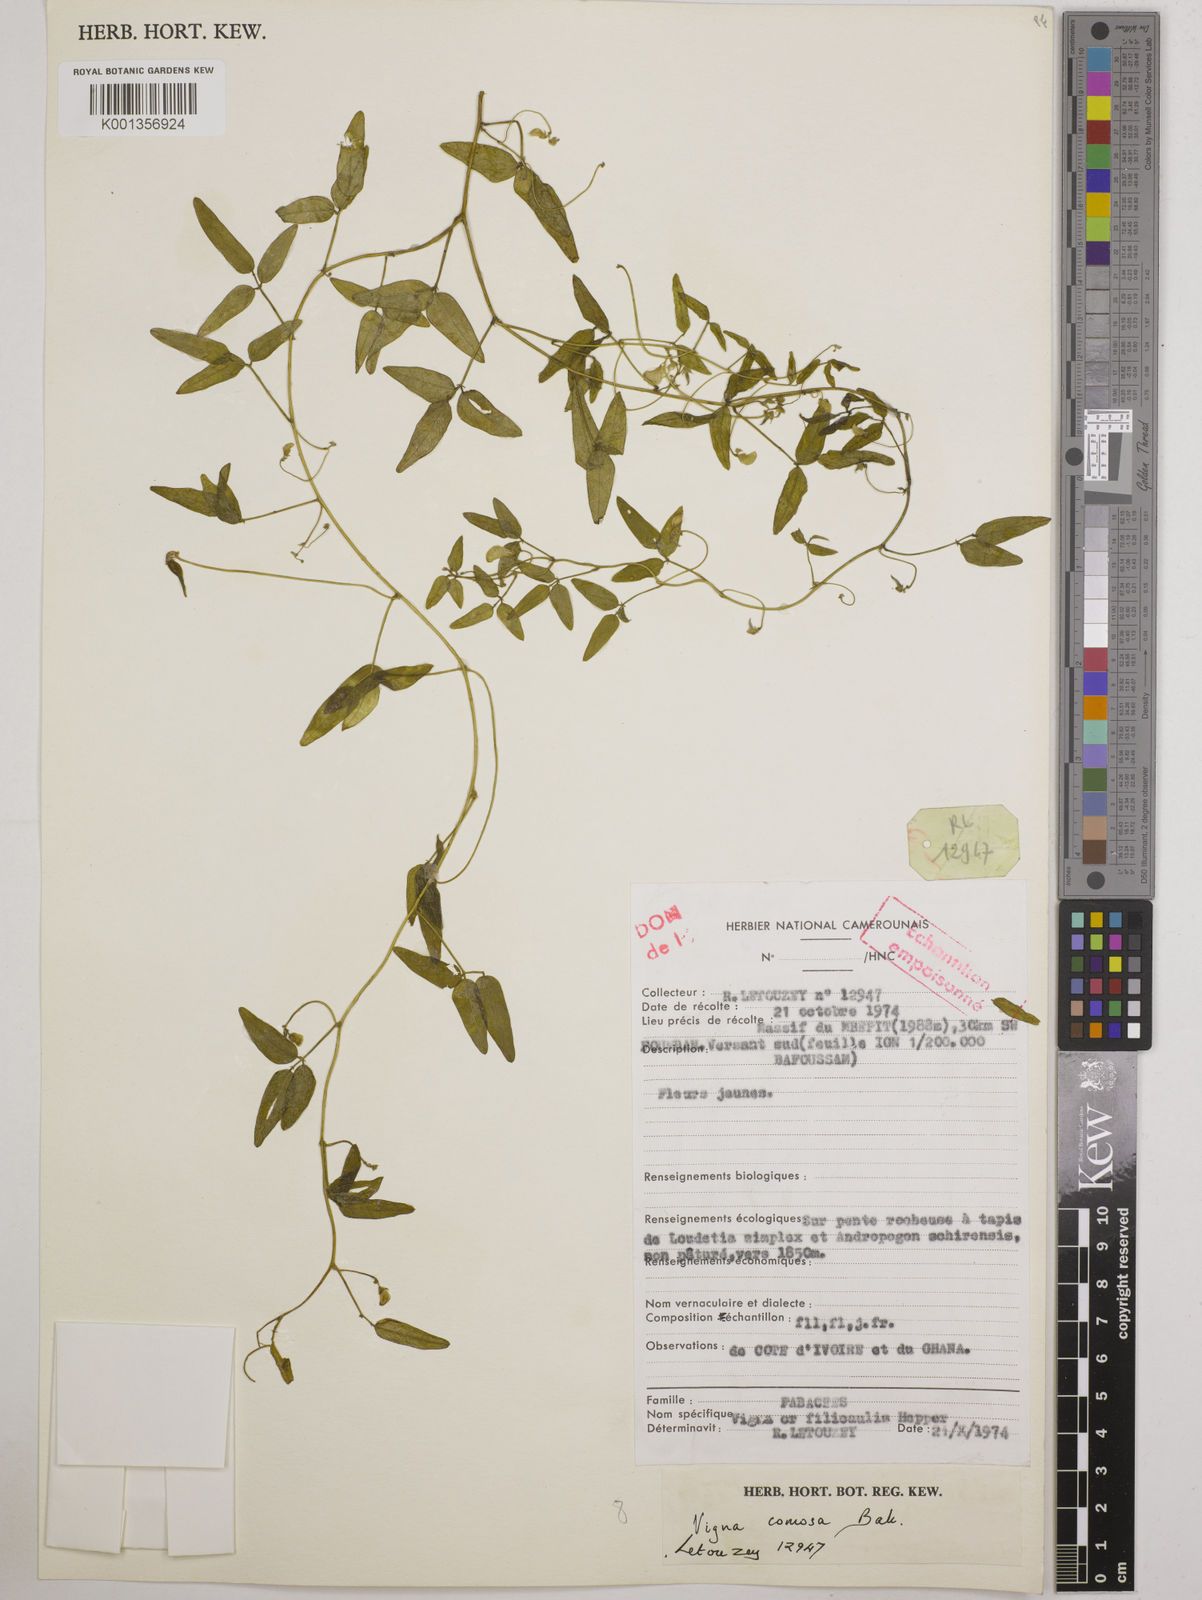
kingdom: Plantae
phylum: Tracheophyta
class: Magnoliopsida
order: Fabales
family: Fabaceae
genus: Vigna
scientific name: Vigna comosa
